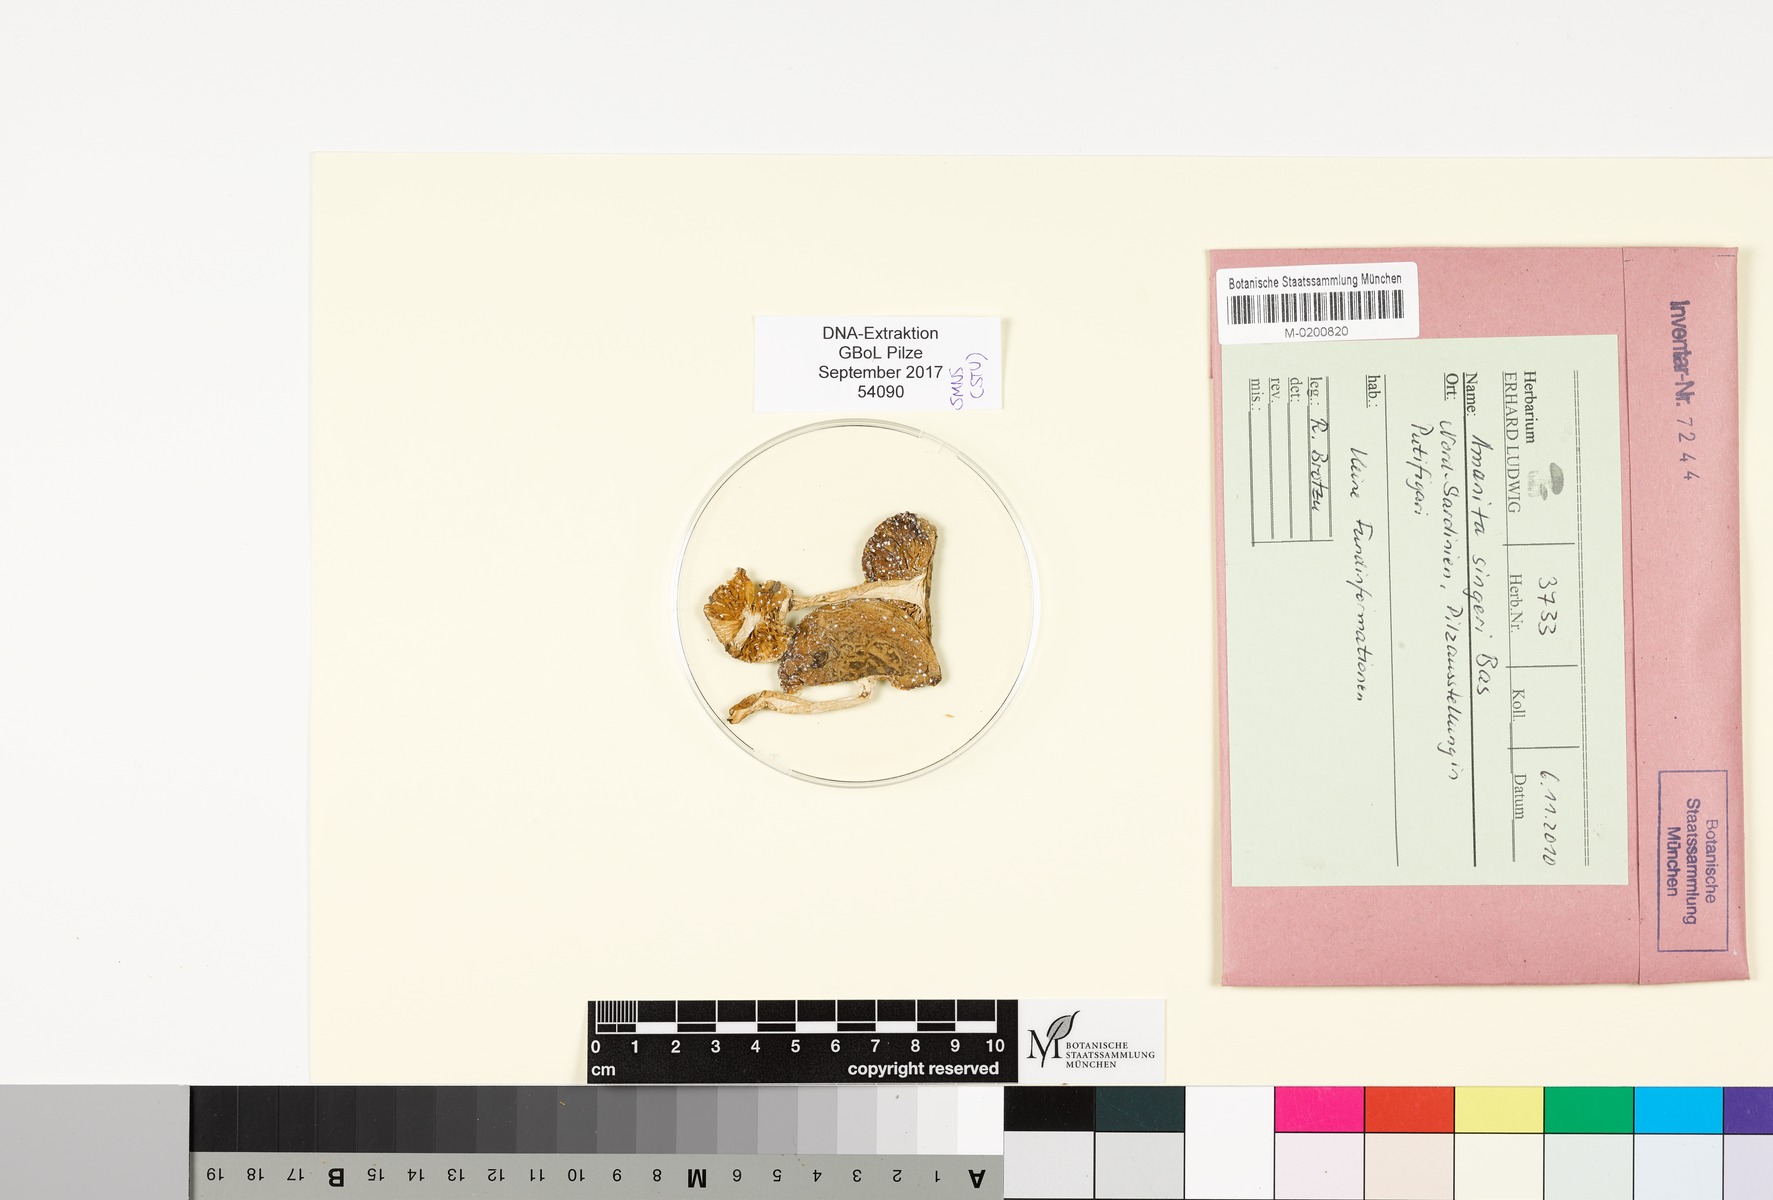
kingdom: Fungi
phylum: Basidiomycota
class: Agaricomycetes
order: Agaricales
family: Amanitaceae
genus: Amanita
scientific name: Amanita singeri
